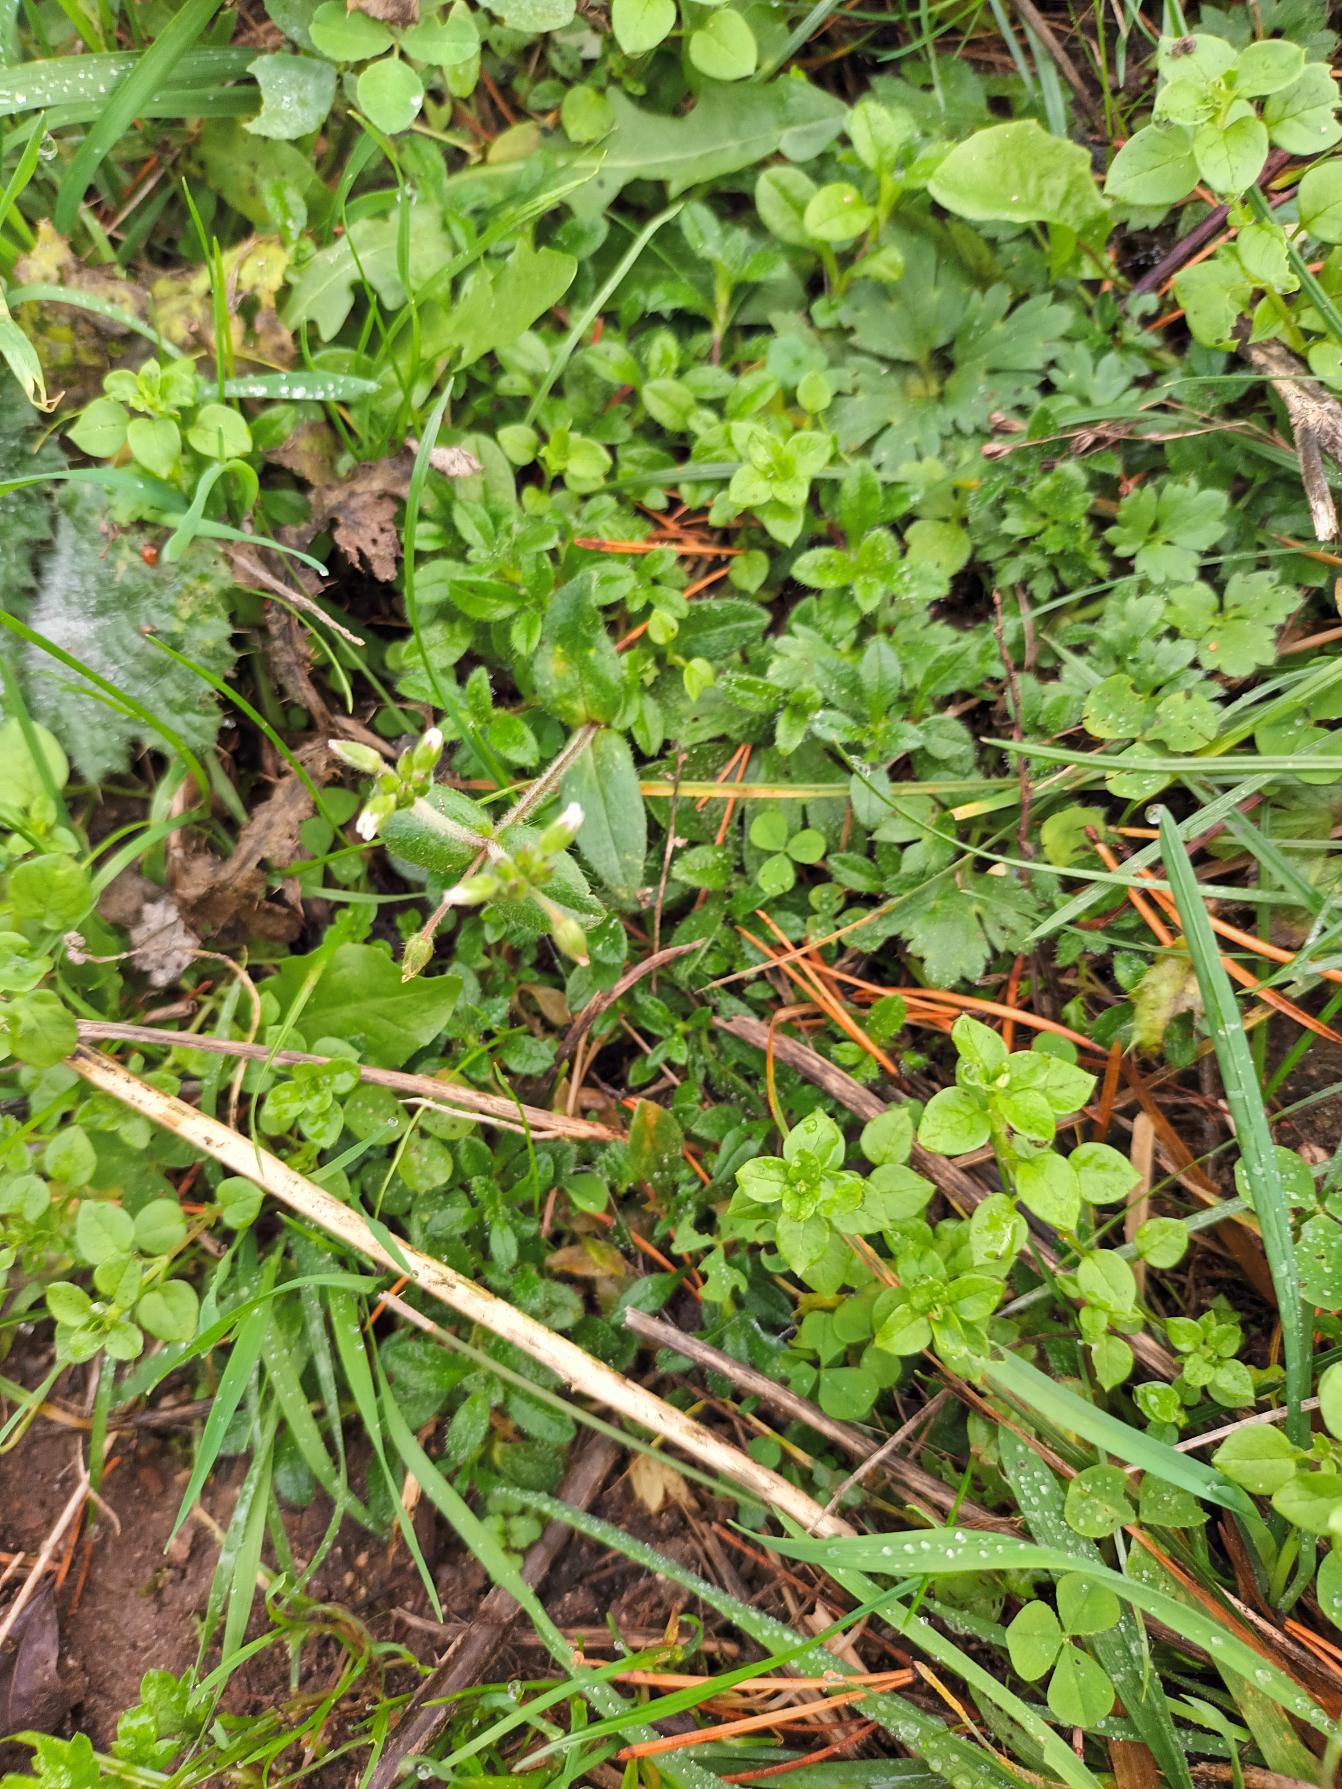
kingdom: Plantae
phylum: Tracheophyta
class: Magnoliopsida
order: Caryophyllales
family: Caryophyllaceae
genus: Cerastium
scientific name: Cerastium fontanum
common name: Almindelig hønsetarm
